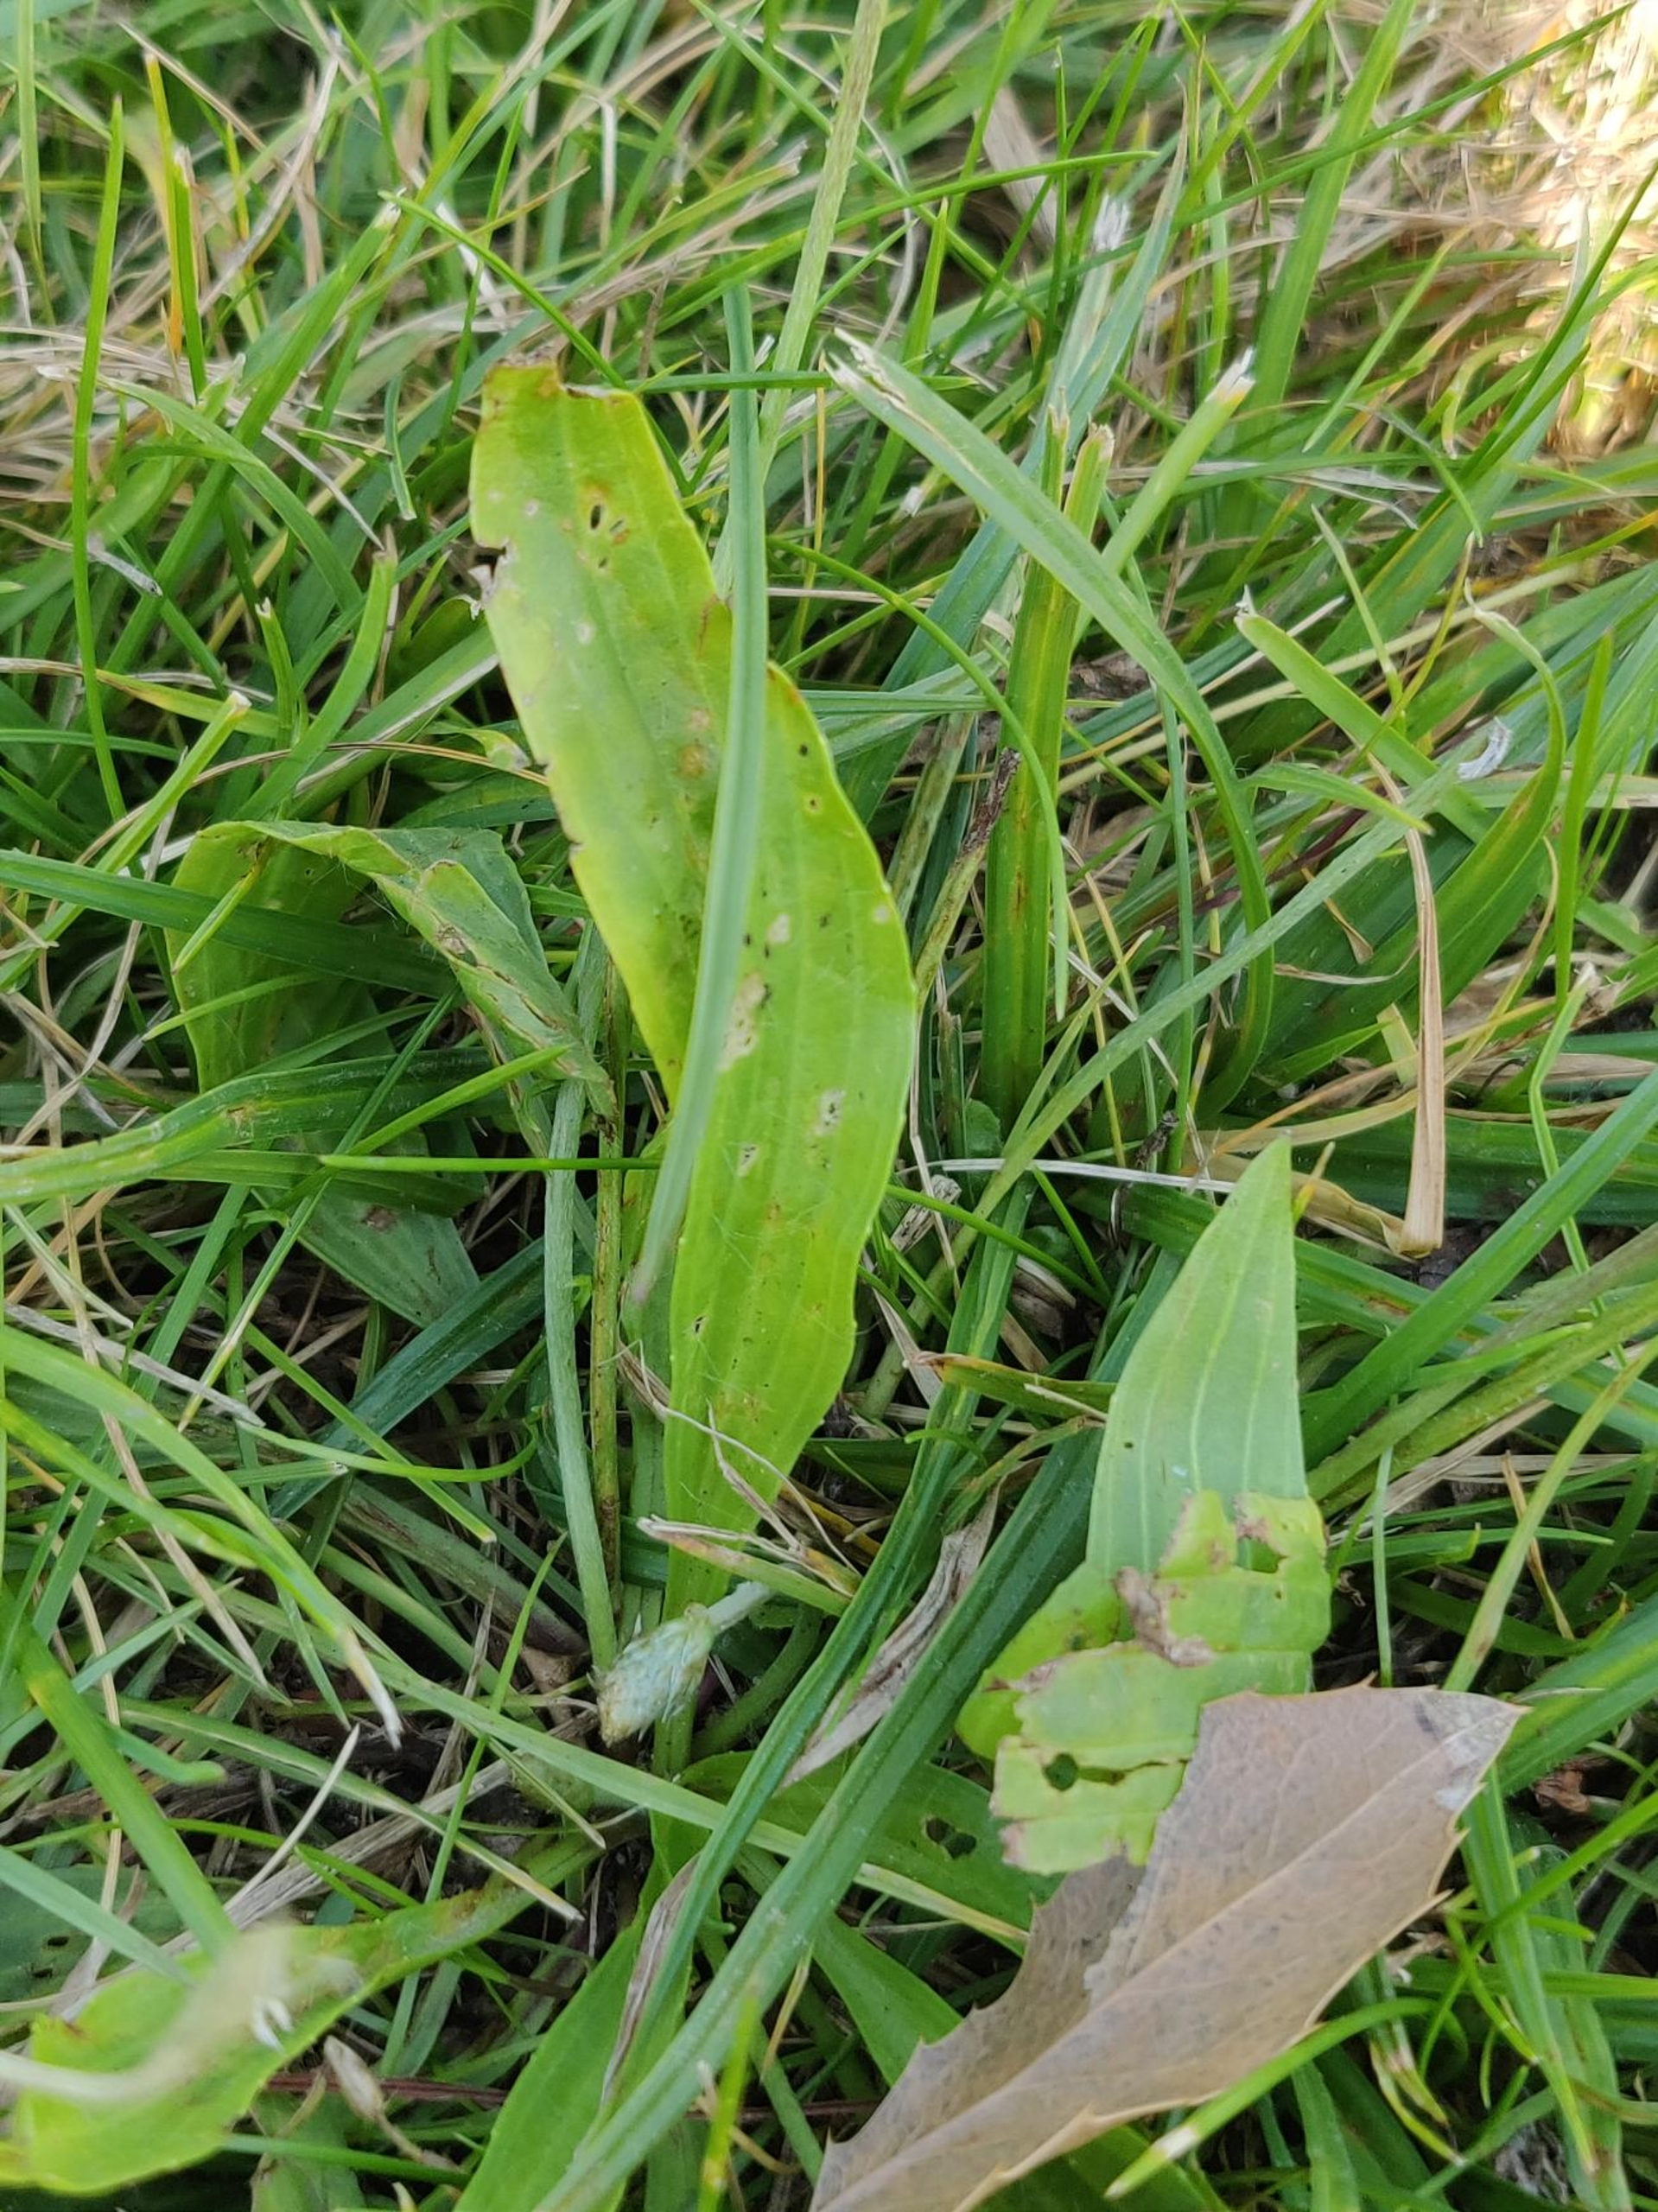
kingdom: Plantae
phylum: Tracheophyta
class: Magnoliopsida
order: Lamiales
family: Plantaginaceae
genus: Plantago
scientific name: Plantago lanceolata
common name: Lancet-vejbred
